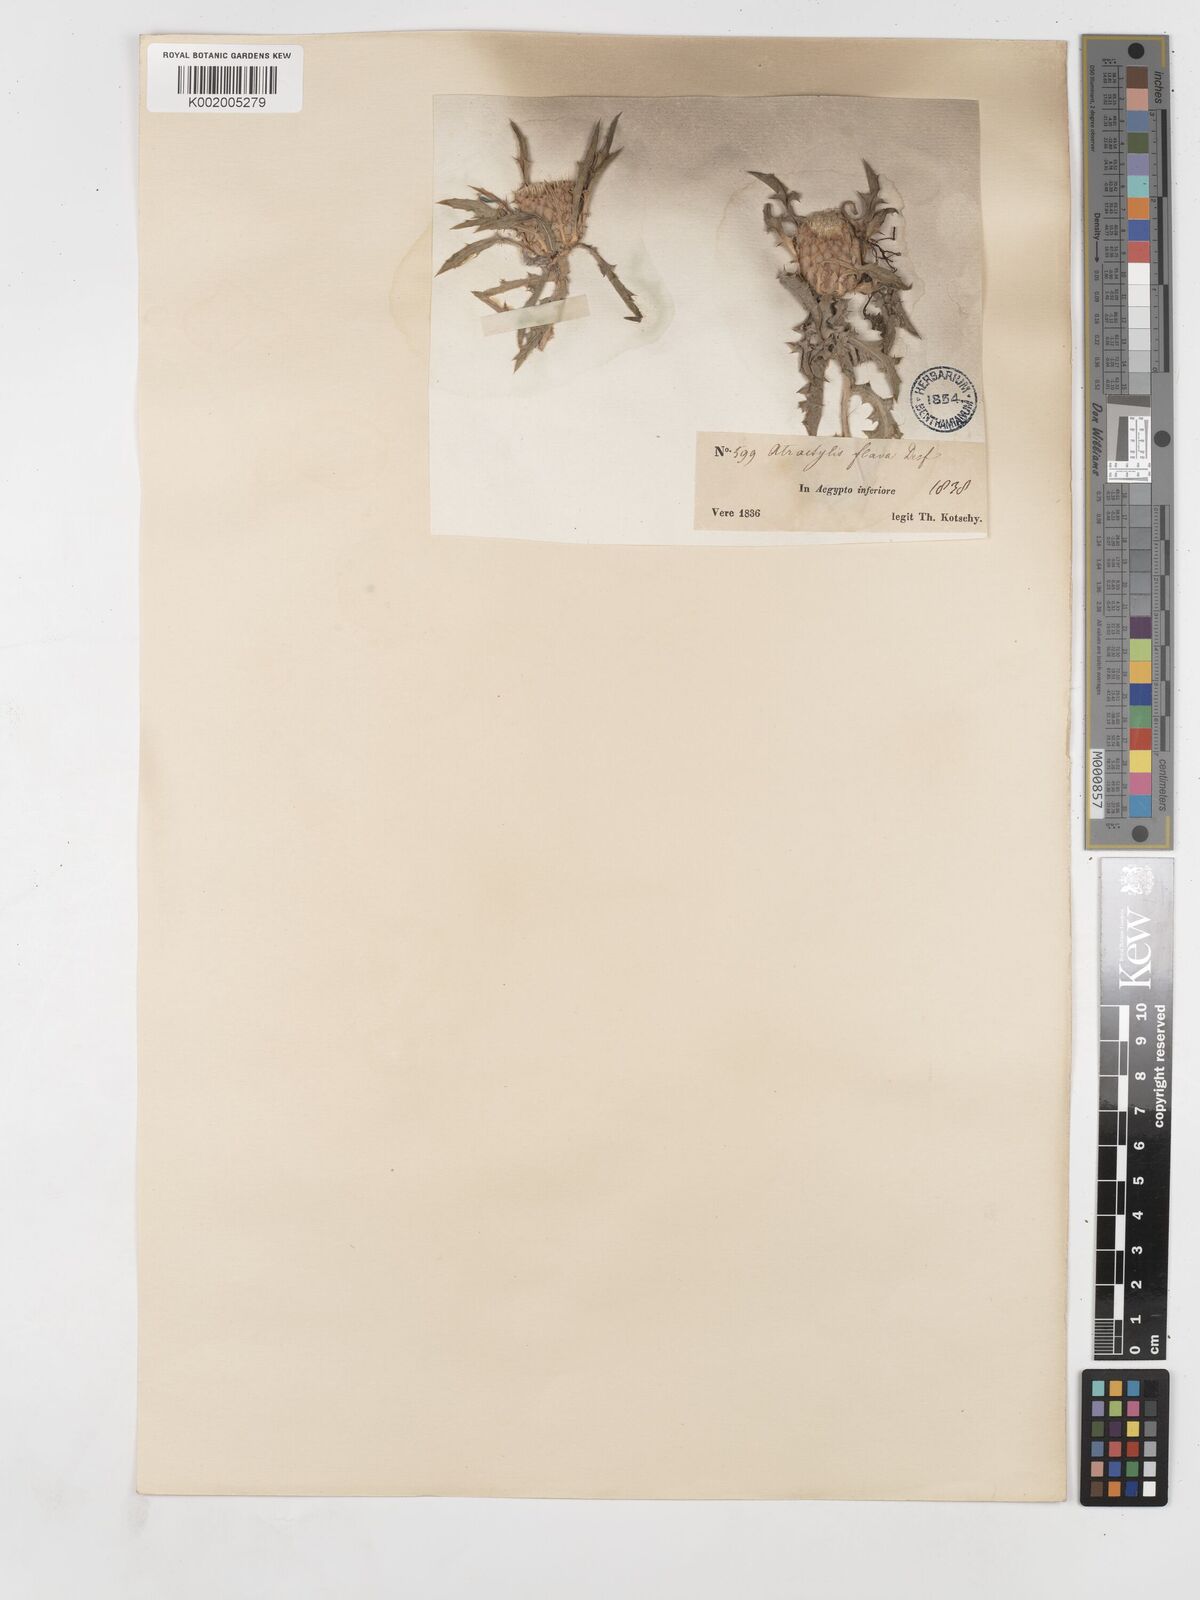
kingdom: Plantae
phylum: Tracheophyta
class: Magnoliopsida
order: Asterales
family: Asteraceae
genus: Atractylis
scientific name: Atractylis carduus
